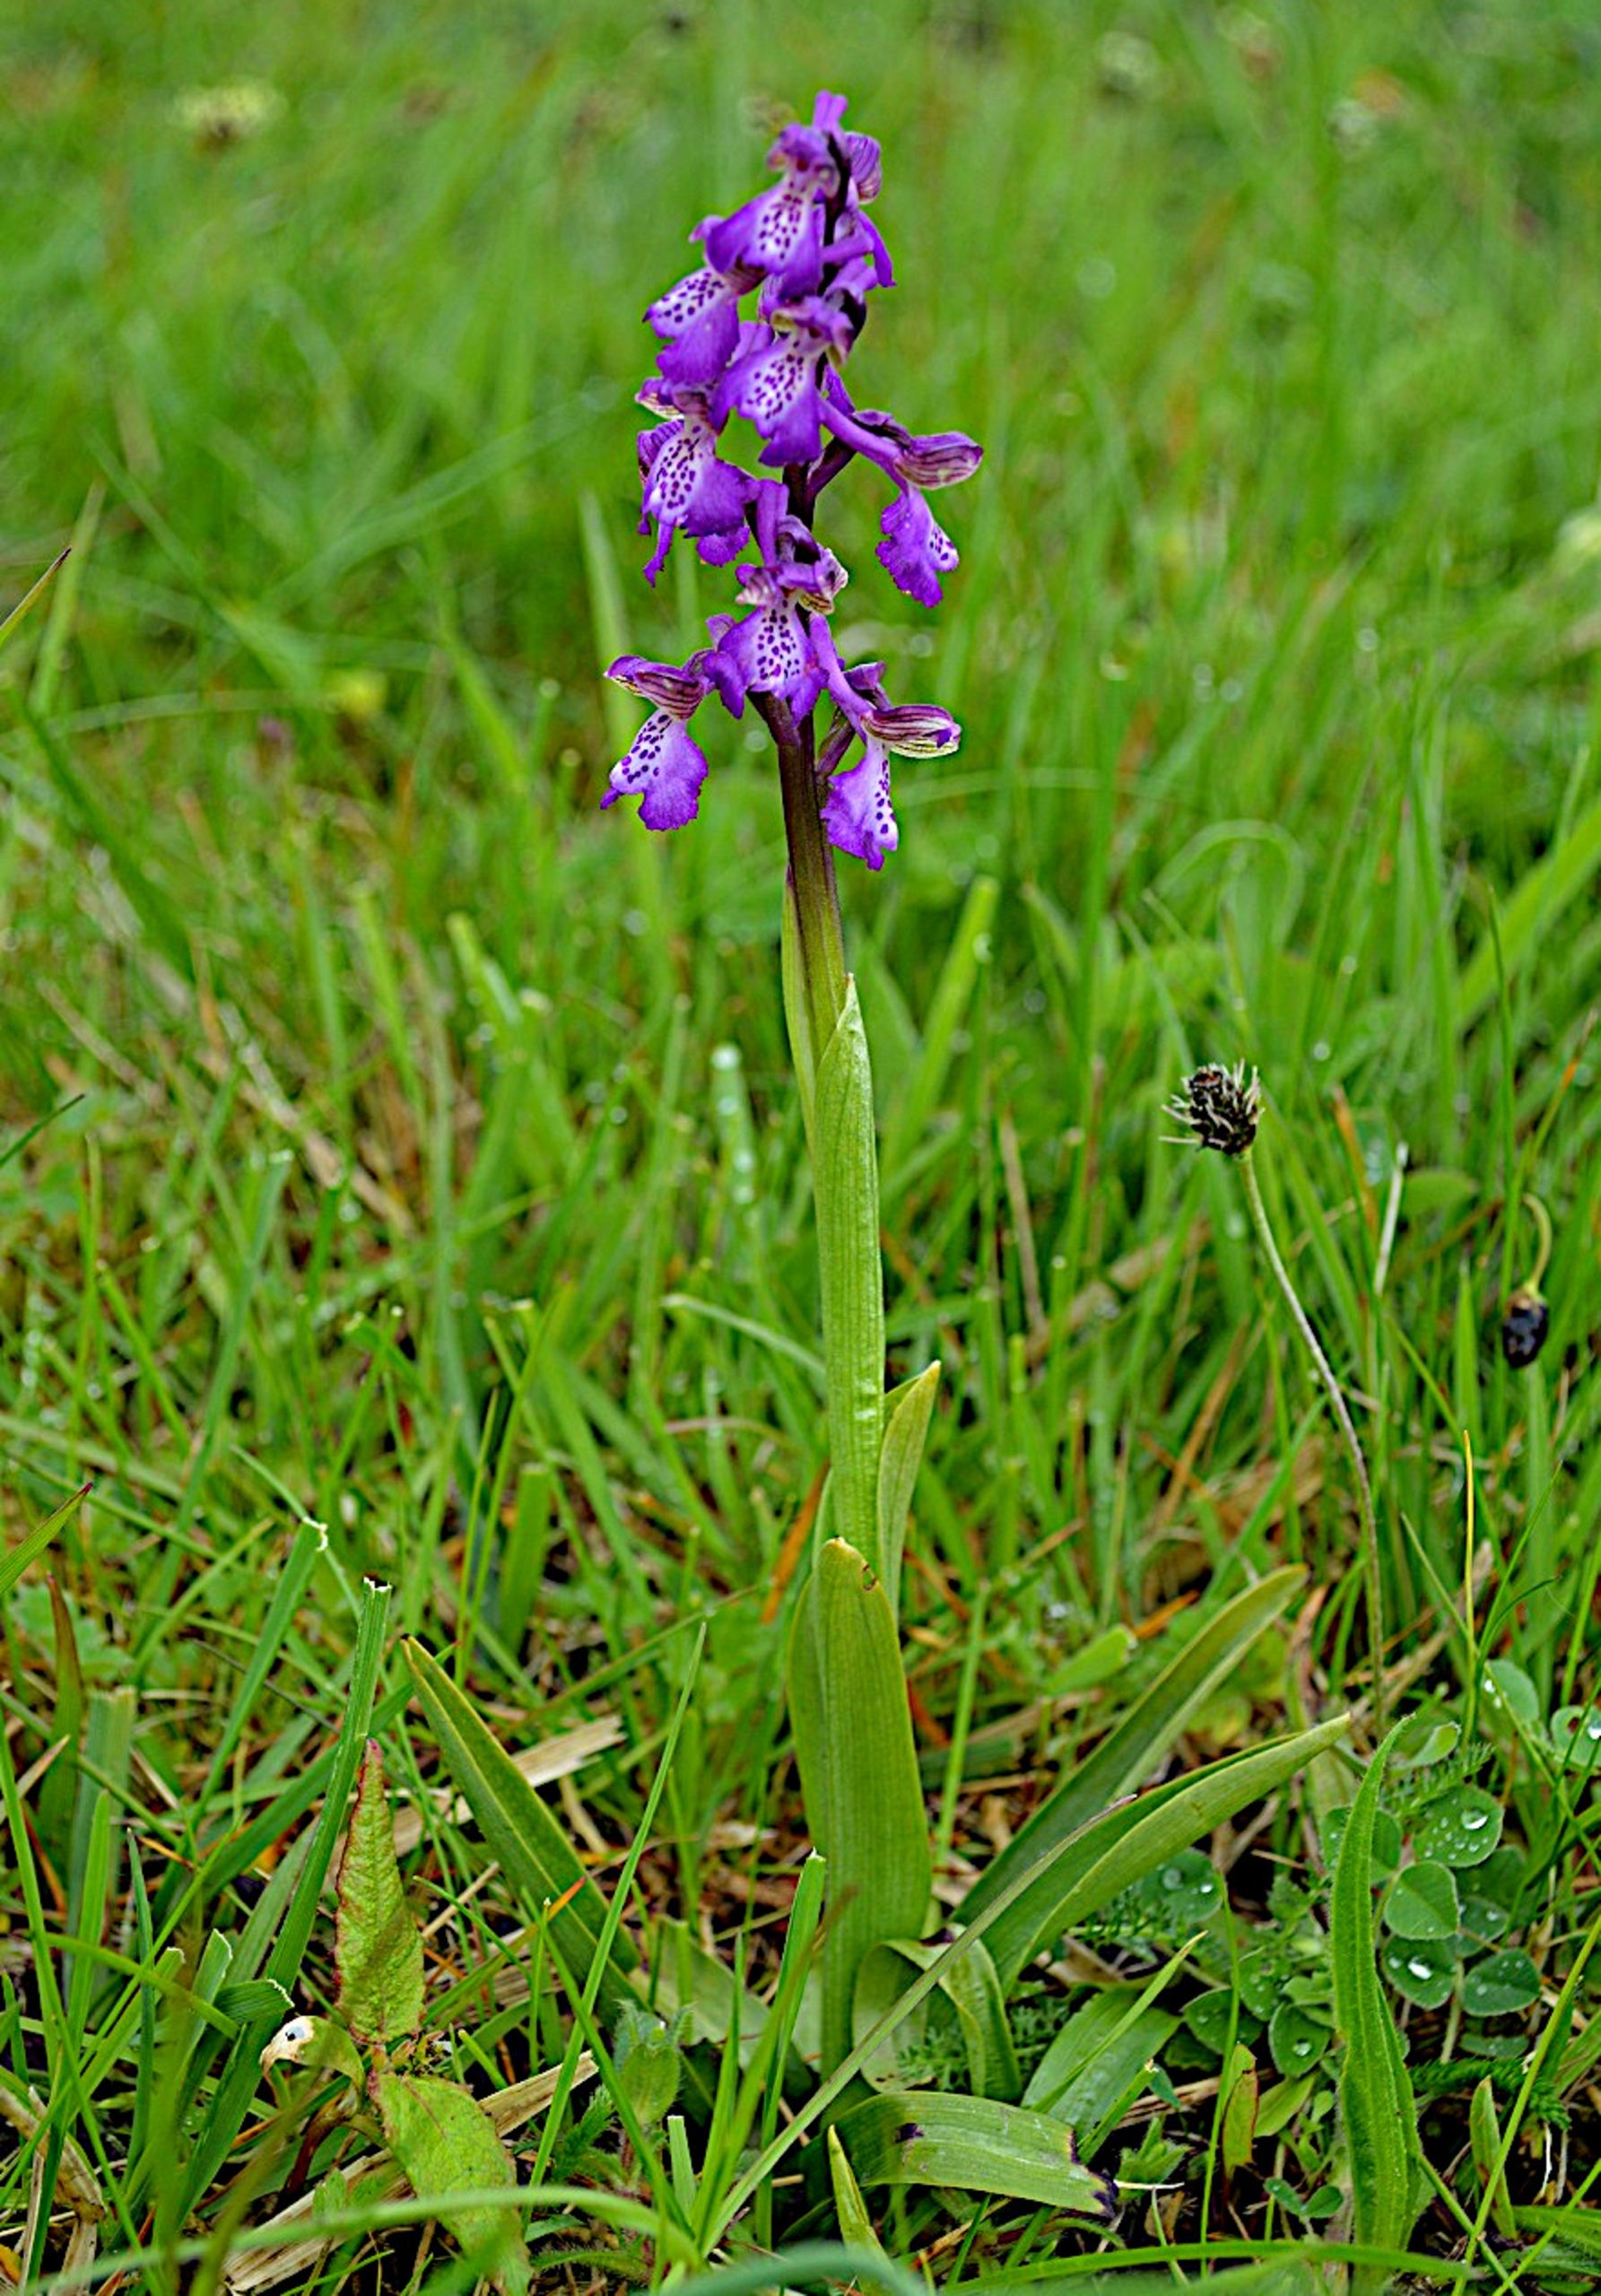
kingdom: Plantae
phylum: Tracheophyta
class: Liliopsida
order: Asparagales
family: Orchidaceae
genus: Anacamptis
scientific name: Anacamptis morio
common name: Salepgøgeurt
